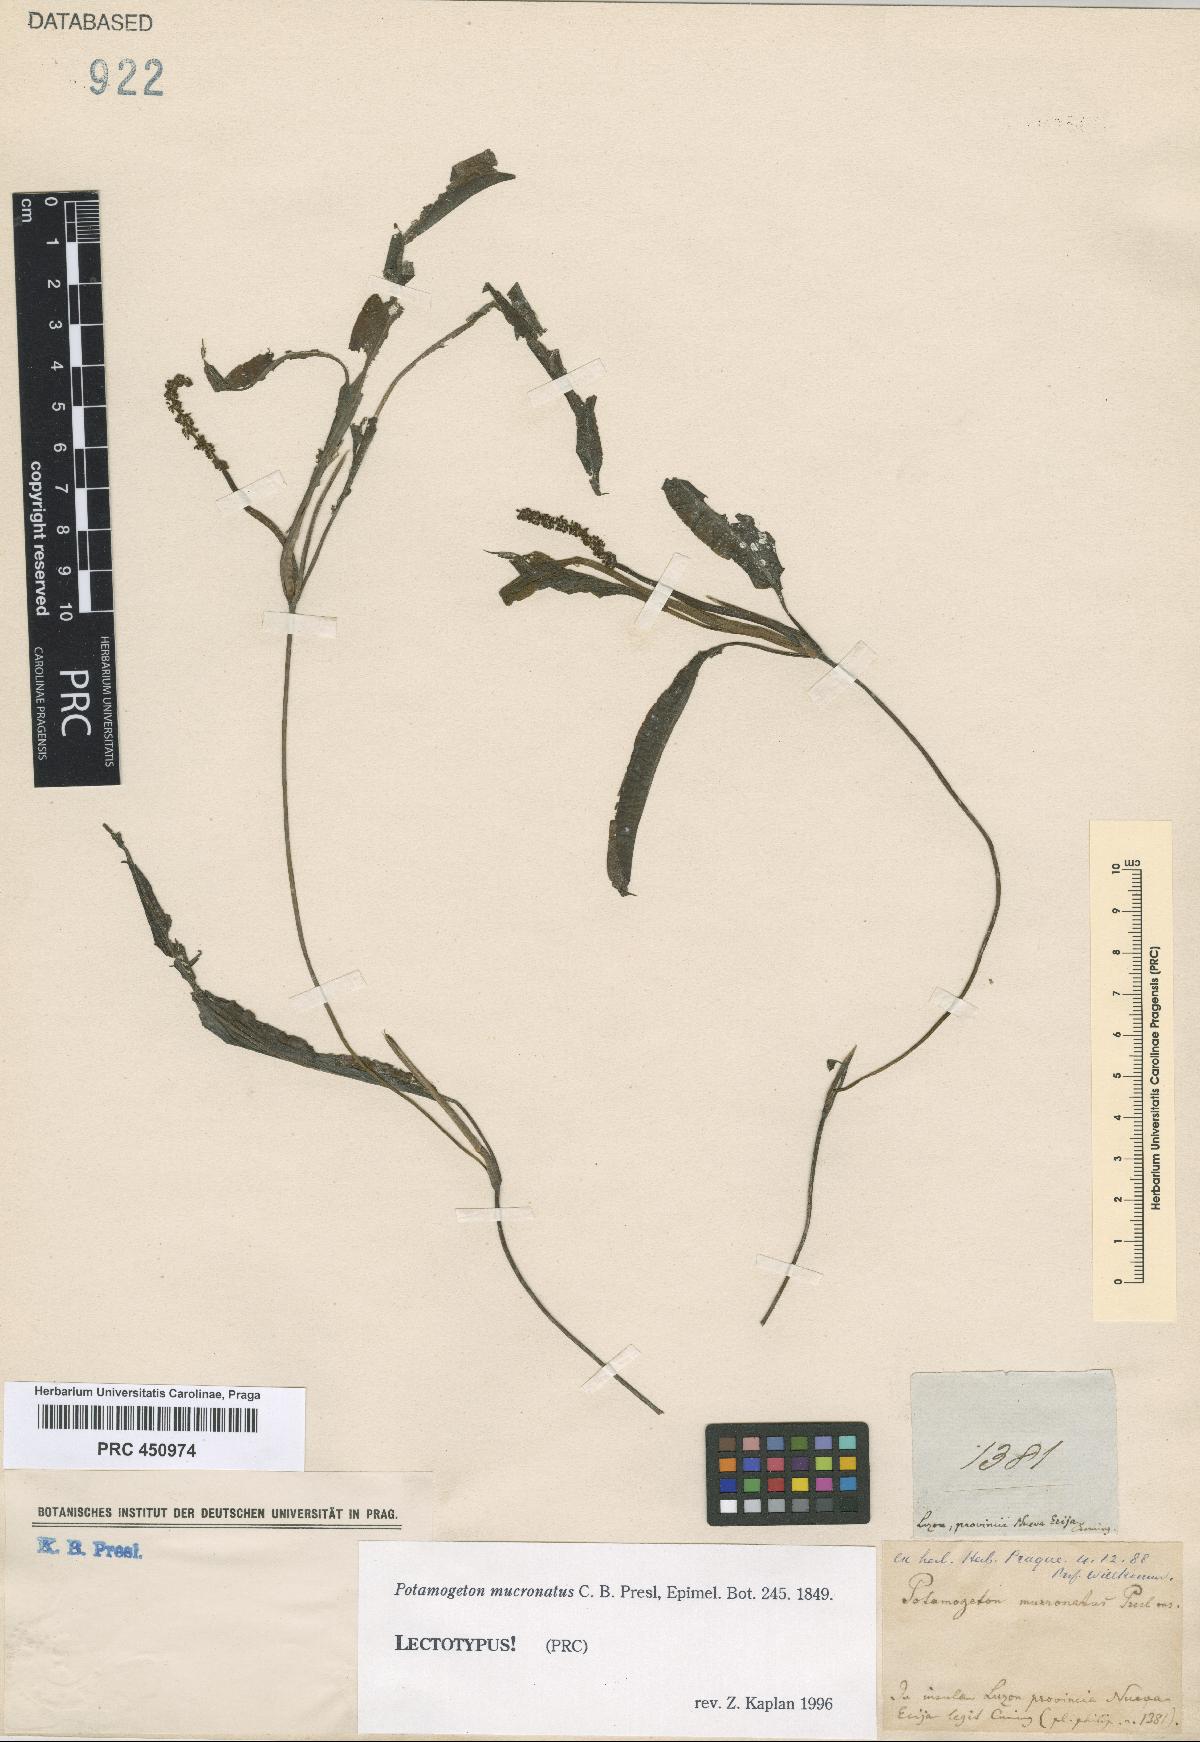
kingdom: Plantae
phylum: Tracheophyta
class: Liliopsida
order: Alismatales
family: Potamogetonaceae
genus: Potamogeton
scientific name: Potamogeton wrightii
